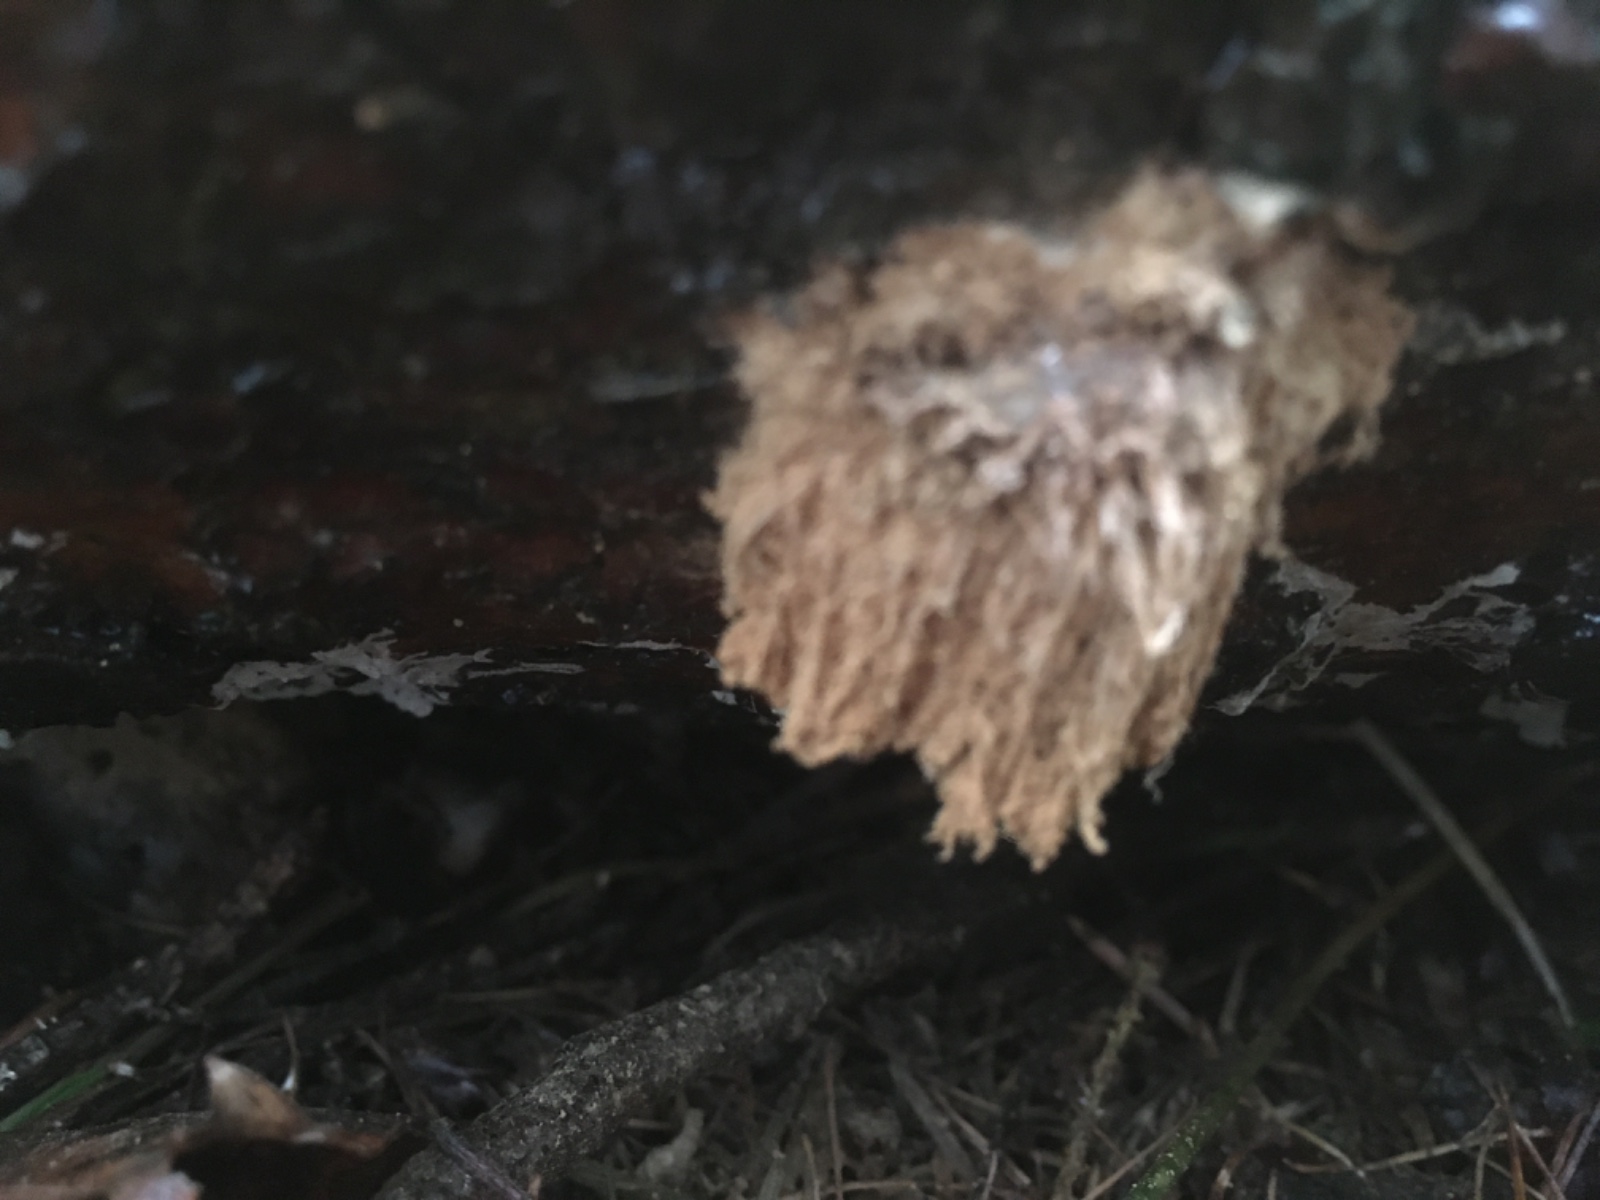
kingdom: Protozoa
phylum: Mycetozoa
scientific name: Mycetozoa
